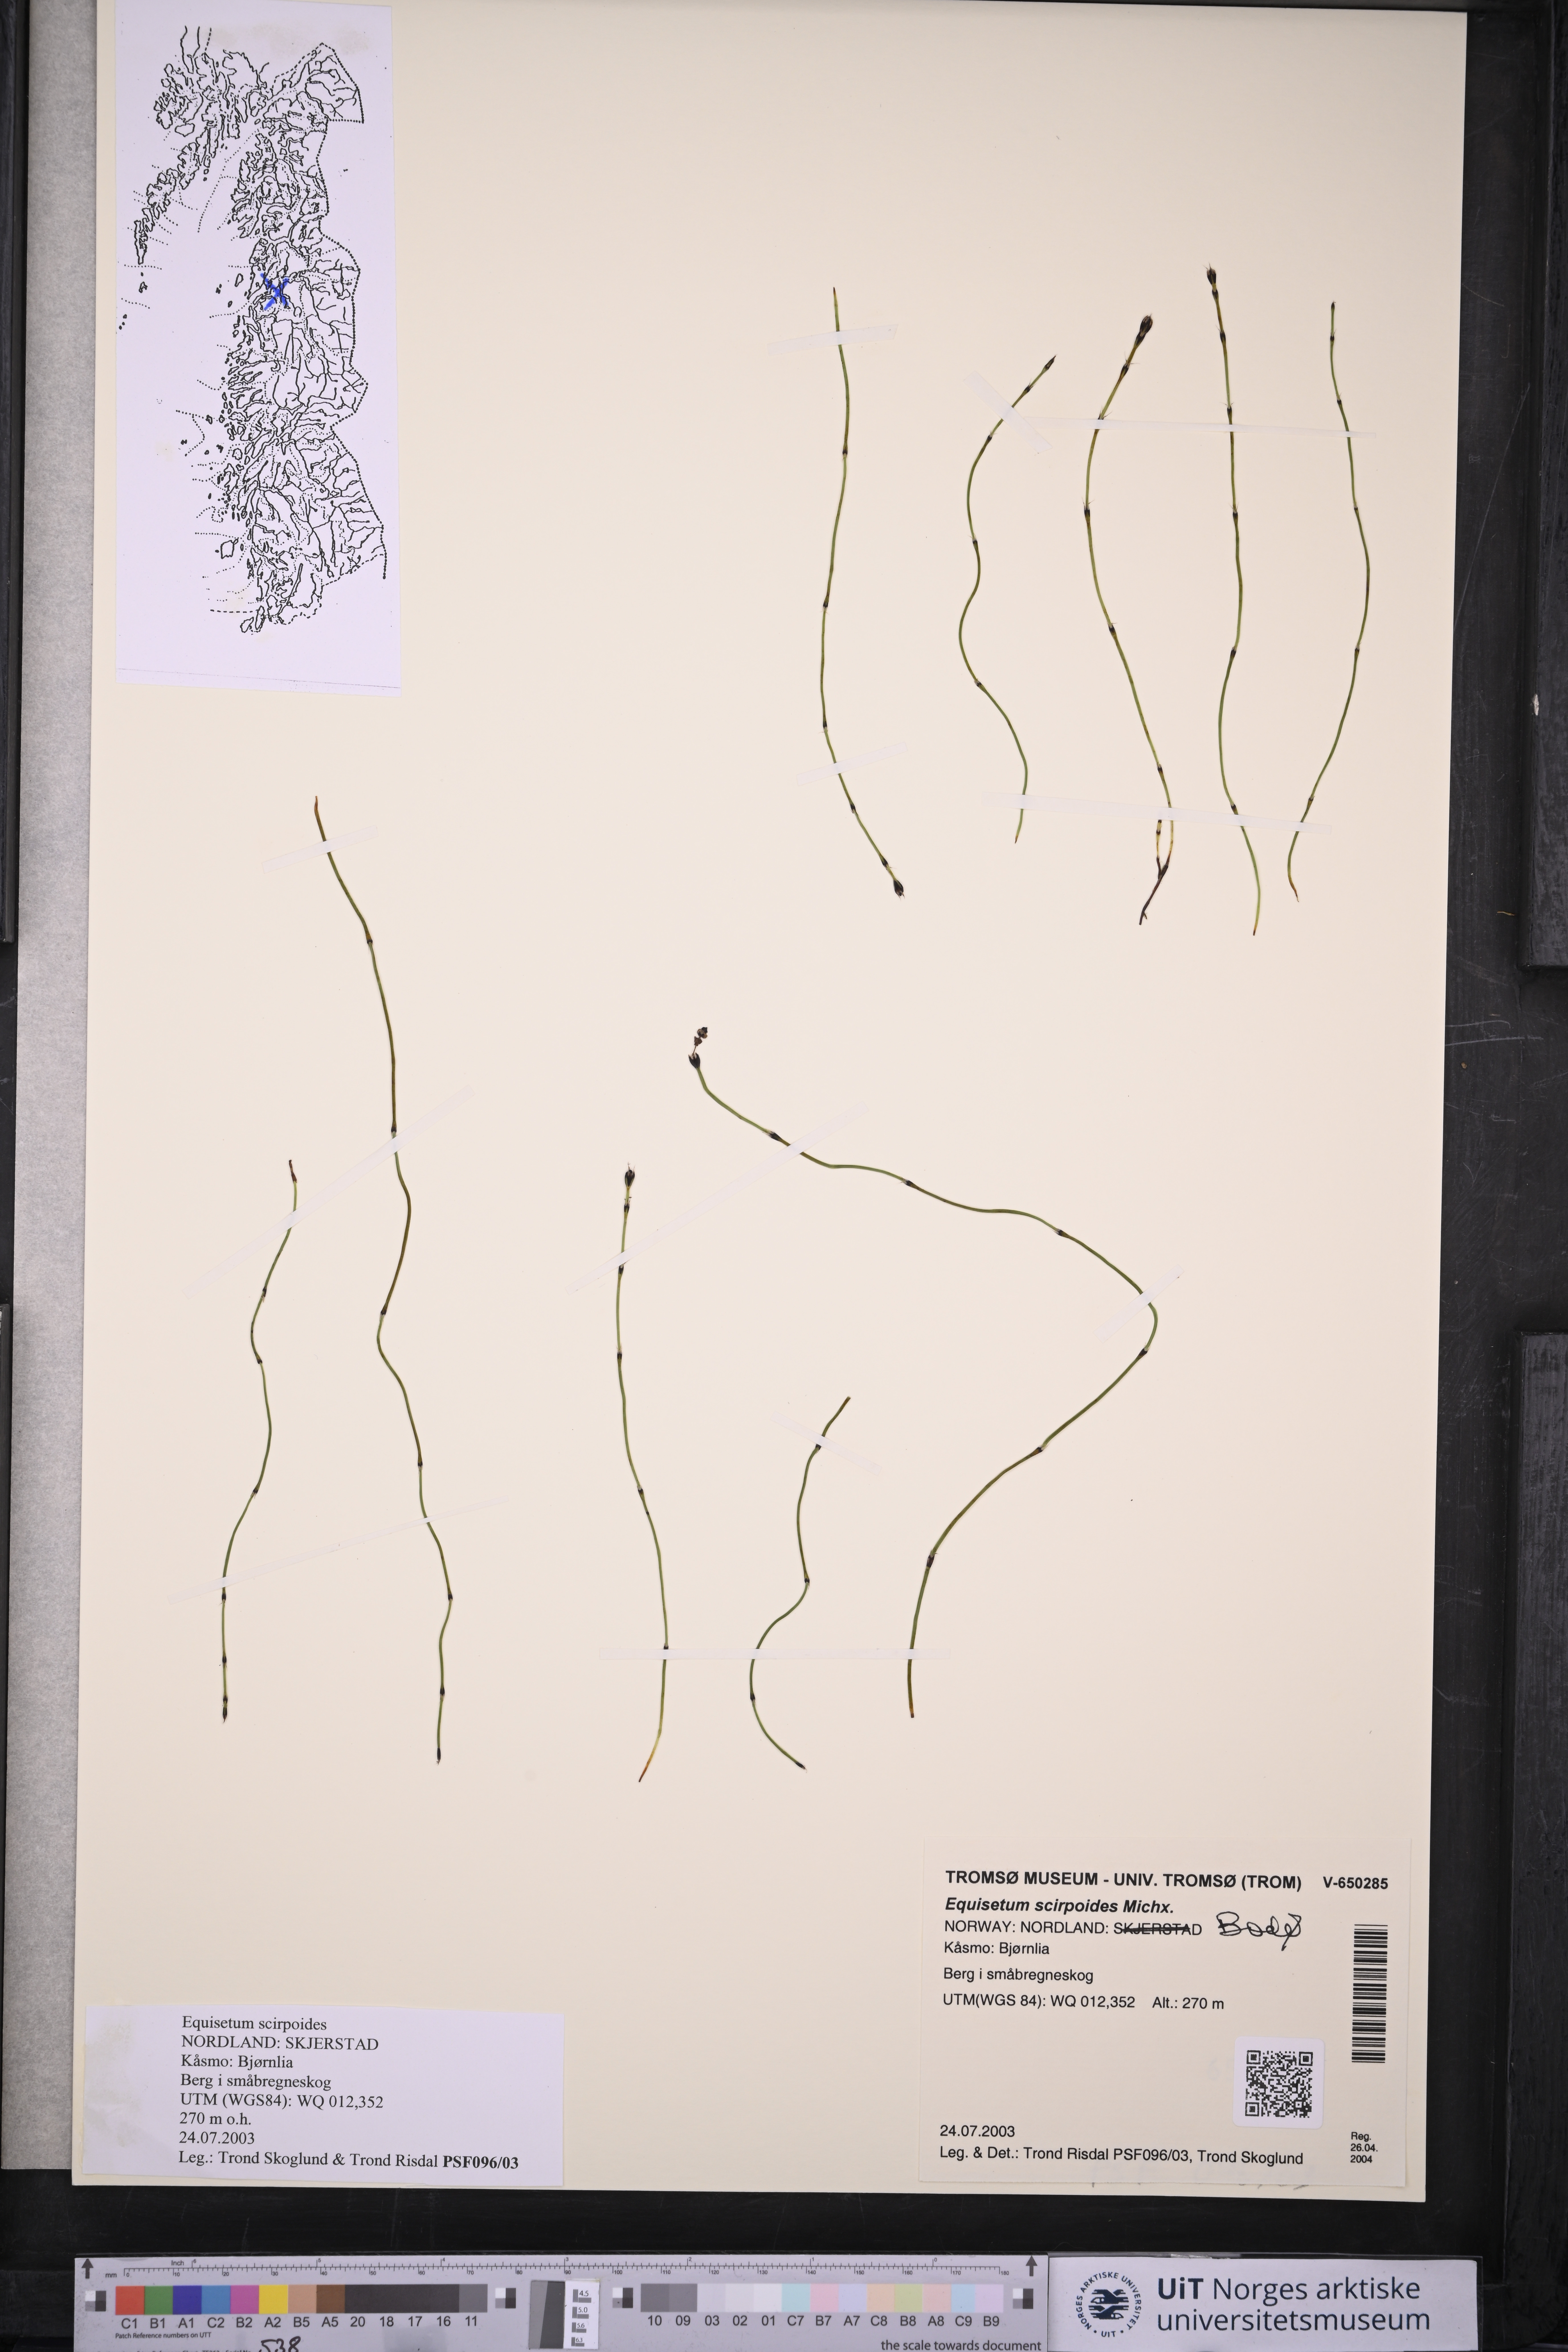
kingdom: Plantae
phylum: Tracheophyta
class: Polypodiopsida
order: Equisetales
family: Equisetaceae
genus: Equisetum
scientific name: Equisetum scirpoides
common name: Delicate horsetail
